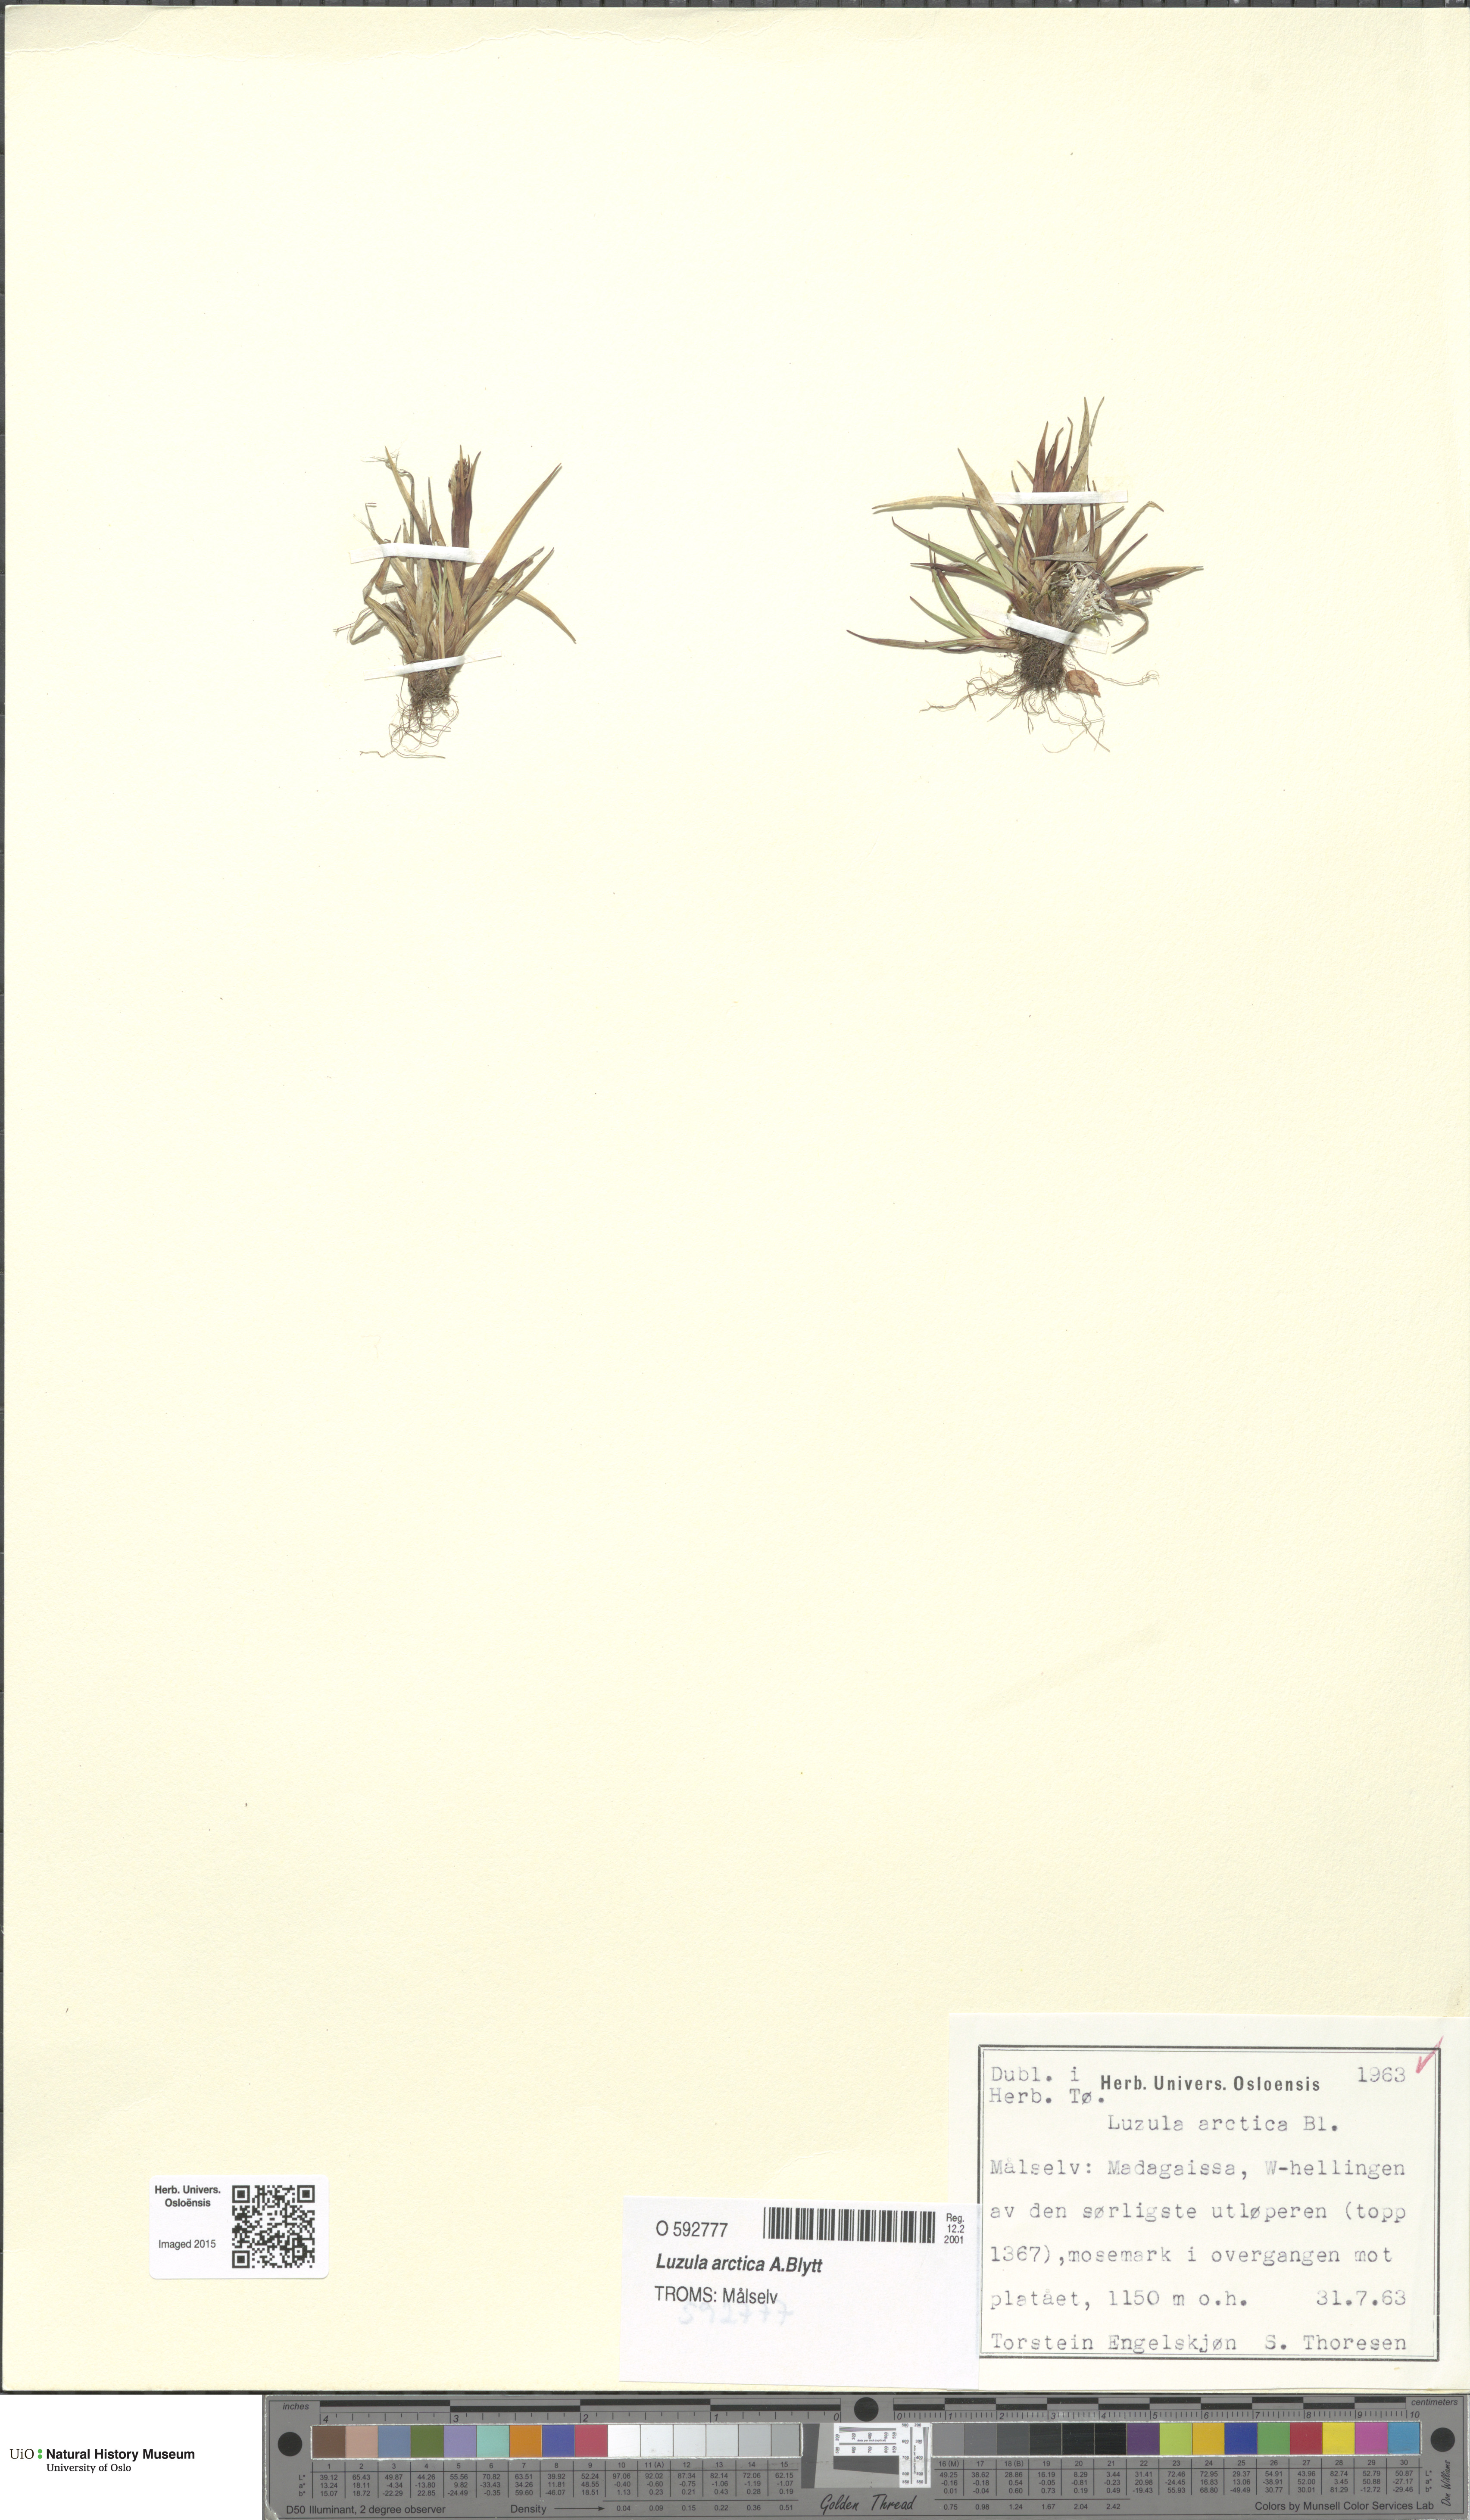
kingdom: Plantae
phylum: Tracheophyta
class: Liliopsida
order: Poales
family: Juncaceae
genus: Luzula
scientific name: Luzula nivalis
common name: Arctic woodrush
